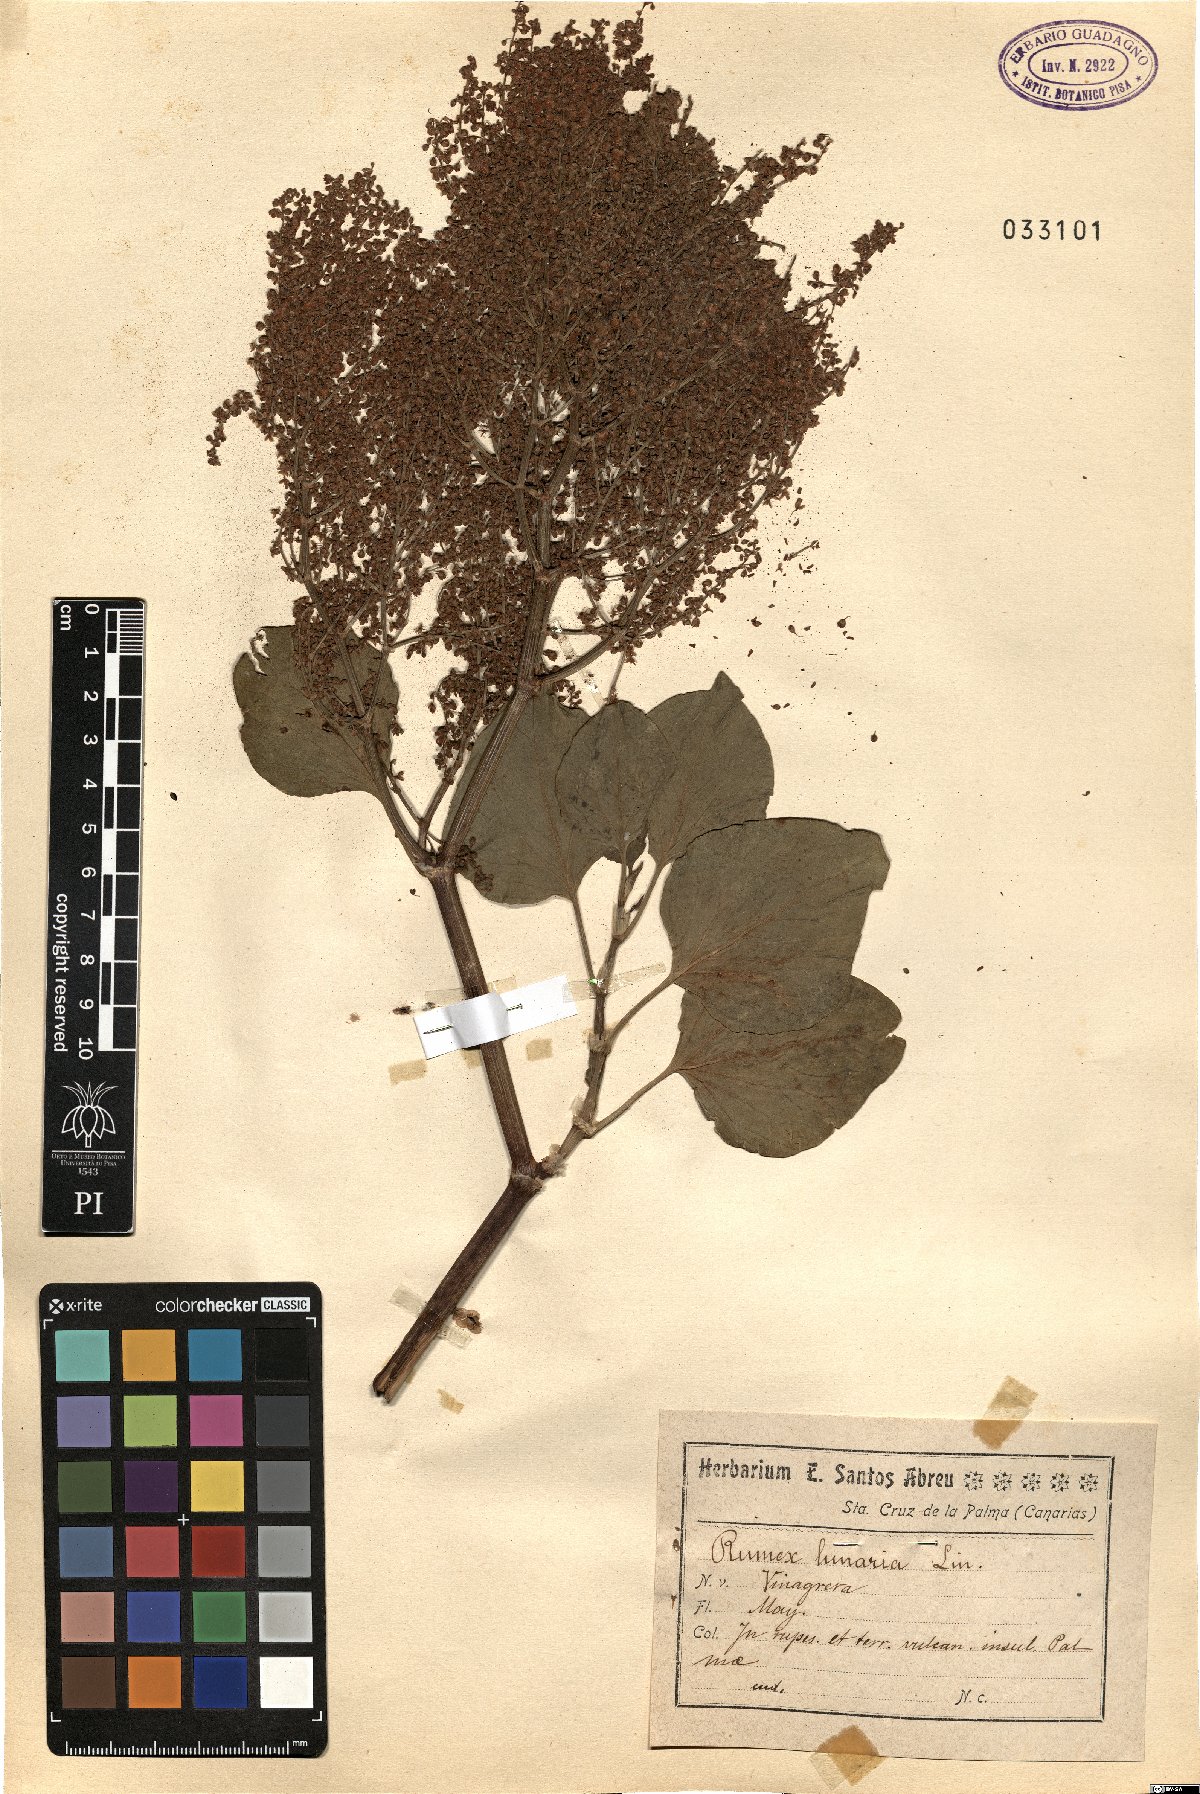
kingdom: Plantae
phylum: Tracheophyta
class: Magnoliopsida
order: Caryophyllales
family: Polygonaceae
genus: Rumex
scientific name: Rumex lunaria
